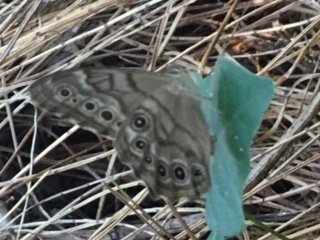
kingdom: Animalia
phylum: Arthropoda
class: Insecta
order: Lepidoptera
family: Nymphalidae
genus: Lethe
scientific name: Lethe creola
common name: Creole Pearly-Eye
